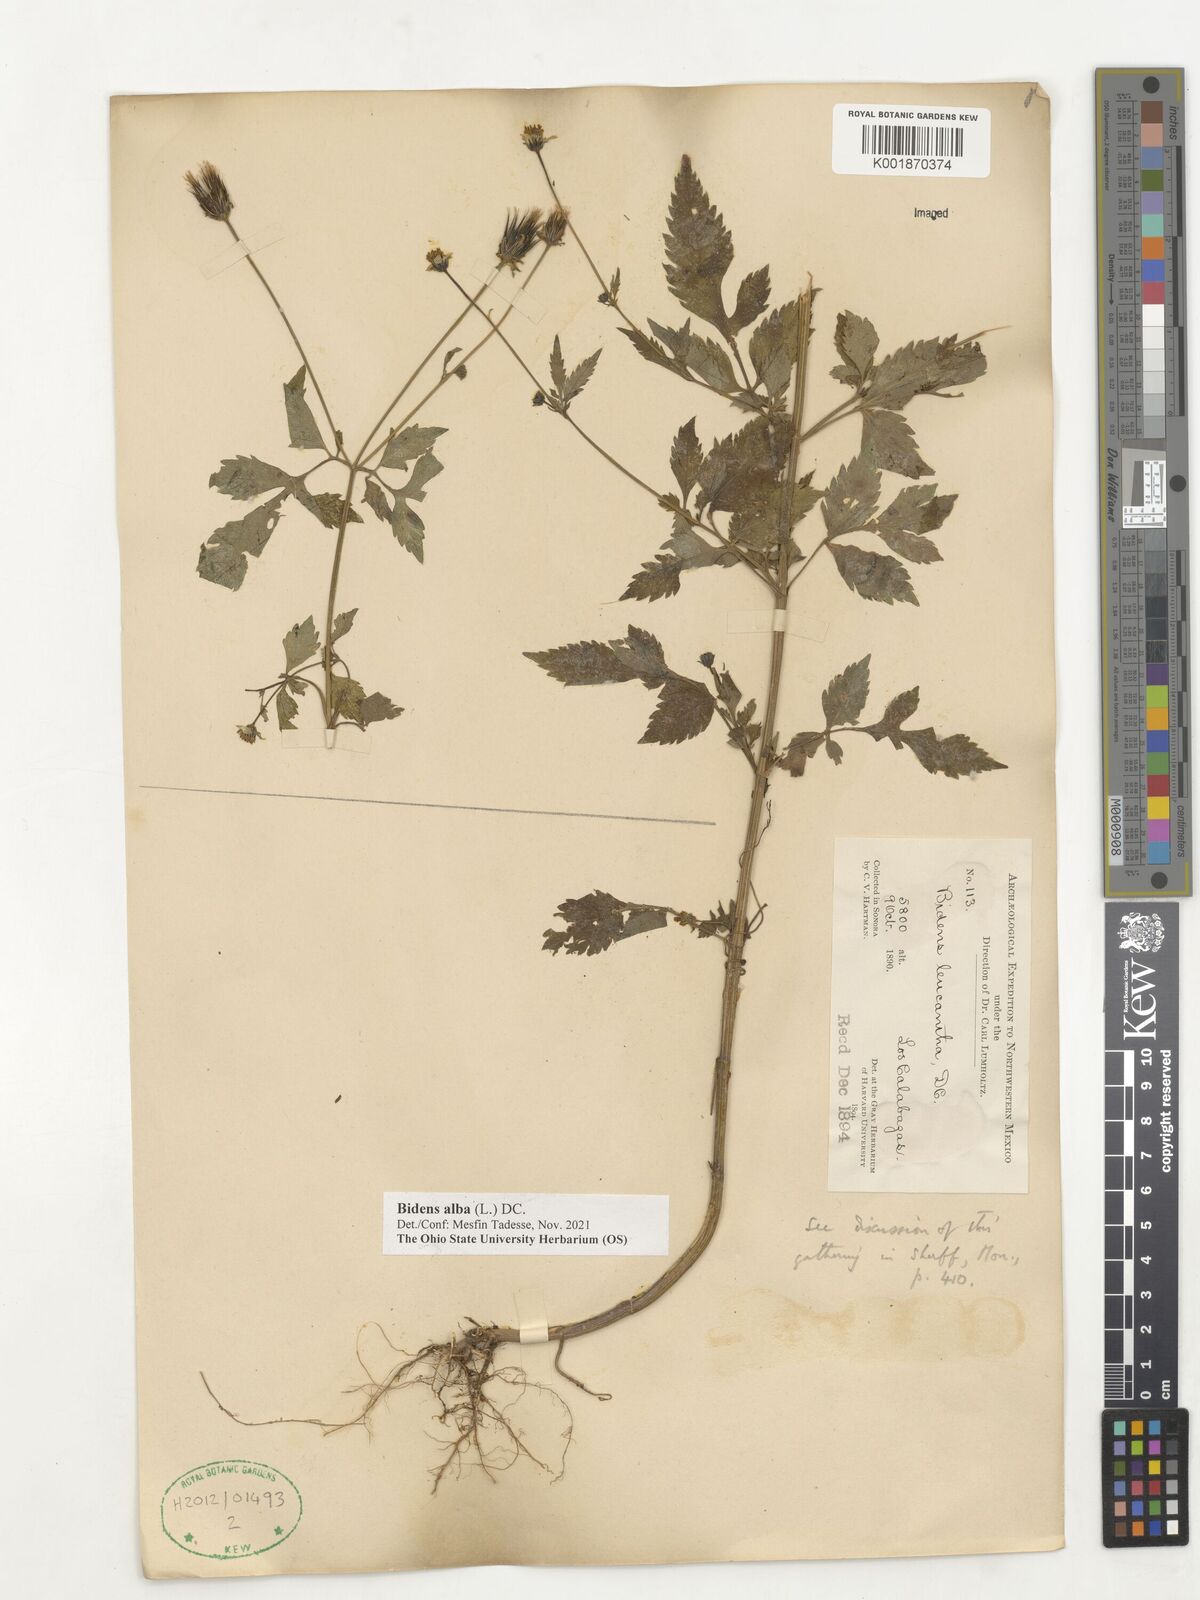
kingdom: Plantae
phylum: Tracheophyta
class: Magnoliopsida
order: Asterales
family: Asteraceae
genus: Bidens
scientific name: Bidens alba
